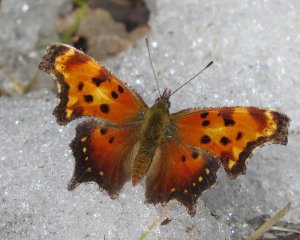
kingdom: Animalia
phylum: Arthropoda
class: Insecta
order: Lepidoptera
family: Nymphalidae
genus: Polygonia
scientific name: Polygonia progne
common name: Gray Comma
